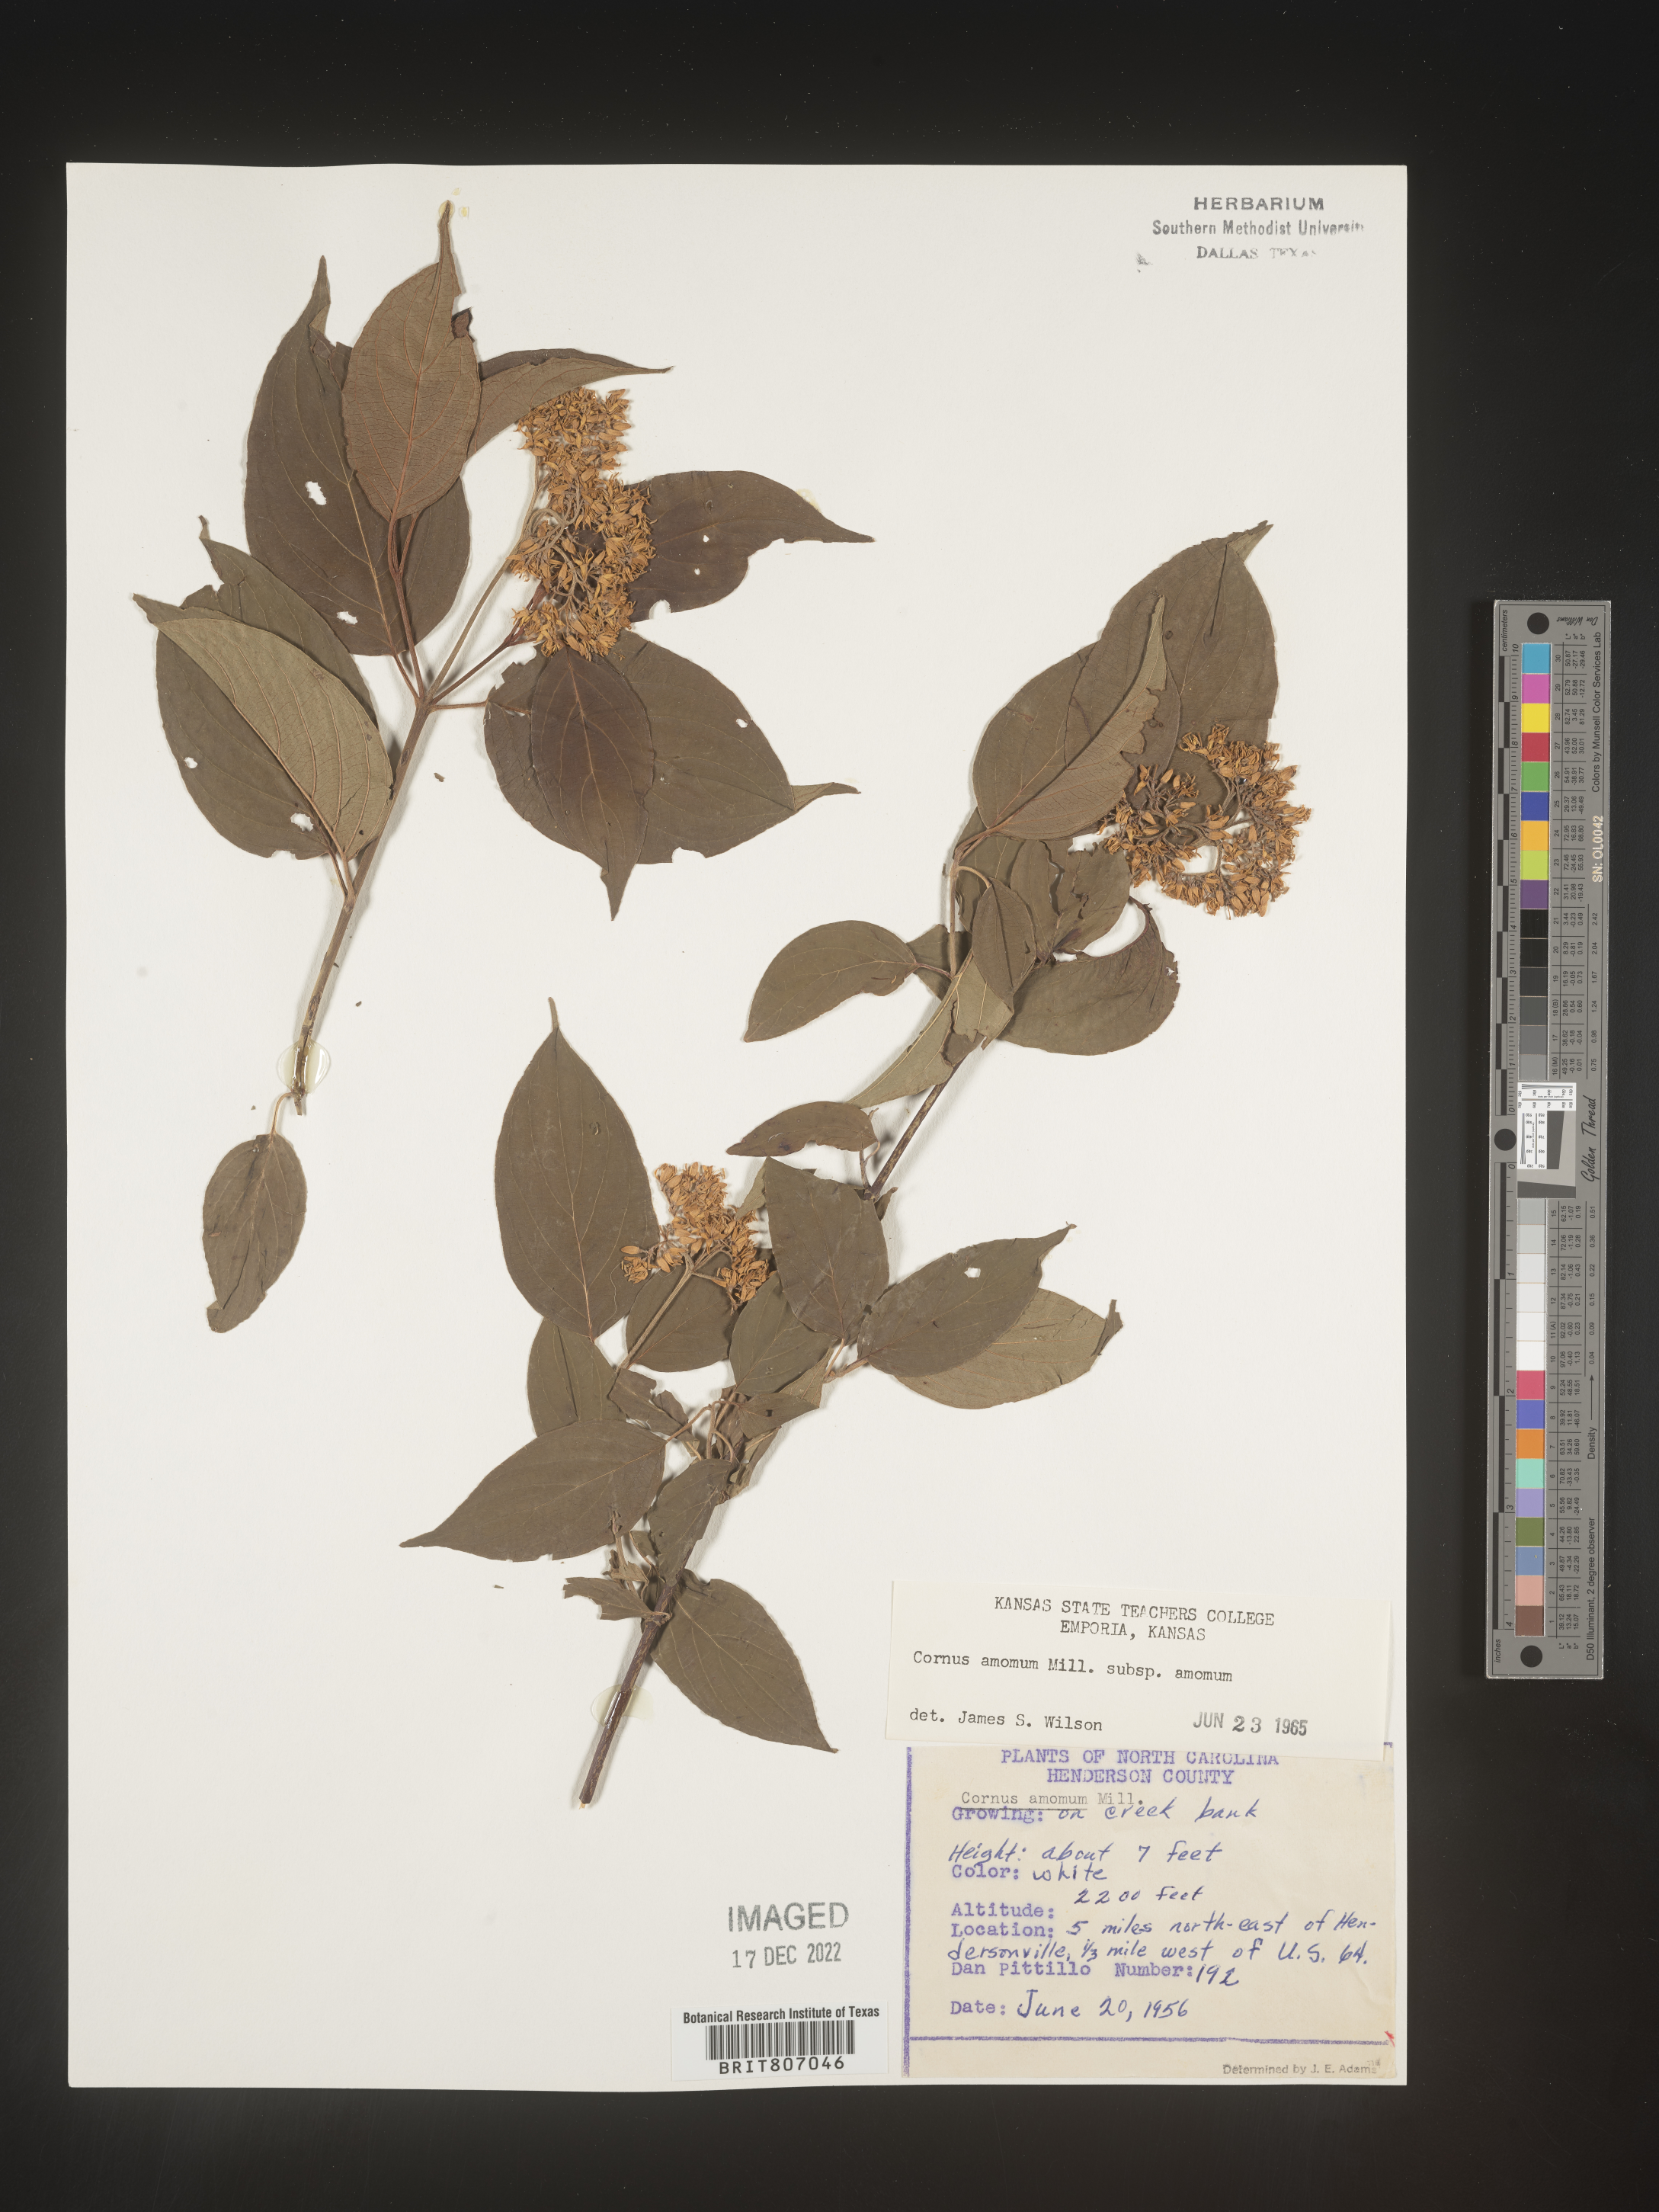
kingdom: Plantae
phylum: Tracheophyta
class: Magnoliopsida
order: Cornales
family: Cornaceae
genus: Cornus
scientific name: Cornus amomum
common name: Silky dogwood
